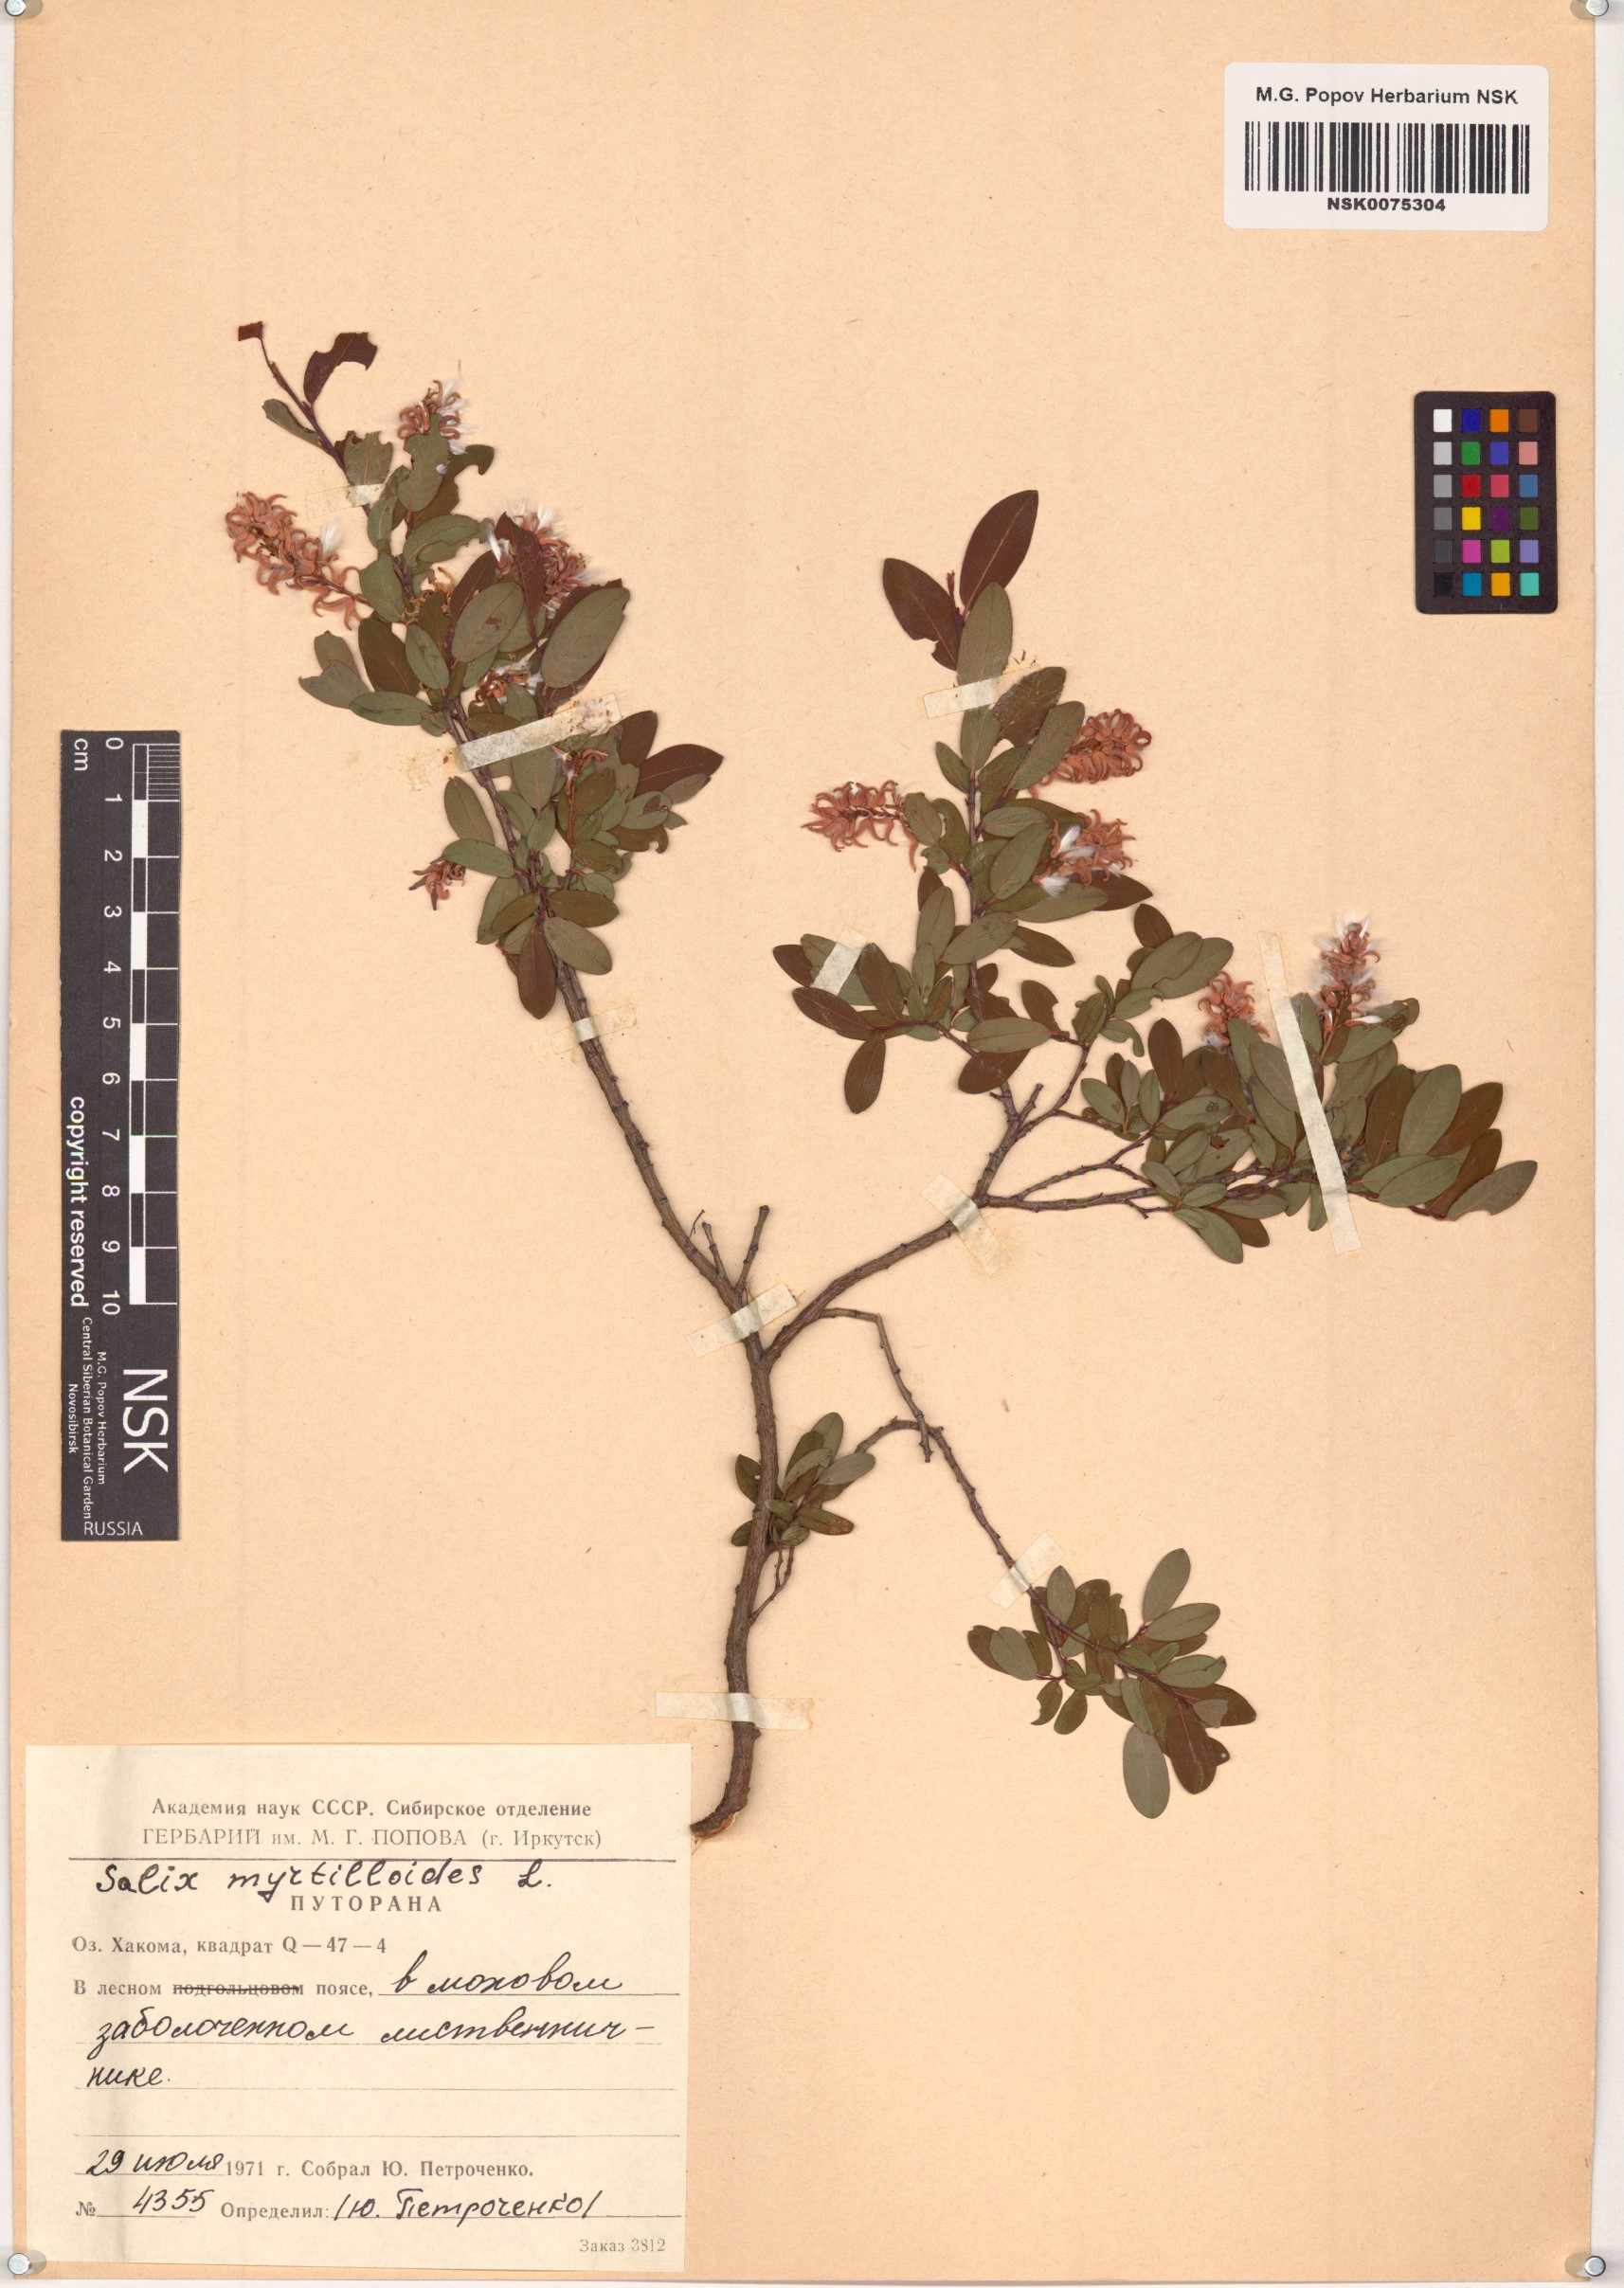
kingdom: Plantae
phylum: Tracheophyta
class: Magnoliopsida
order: Malpighiales
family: Salicaceae
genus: Salix
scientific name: Salix myrtilloides
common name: Myrtle-leaved willow
